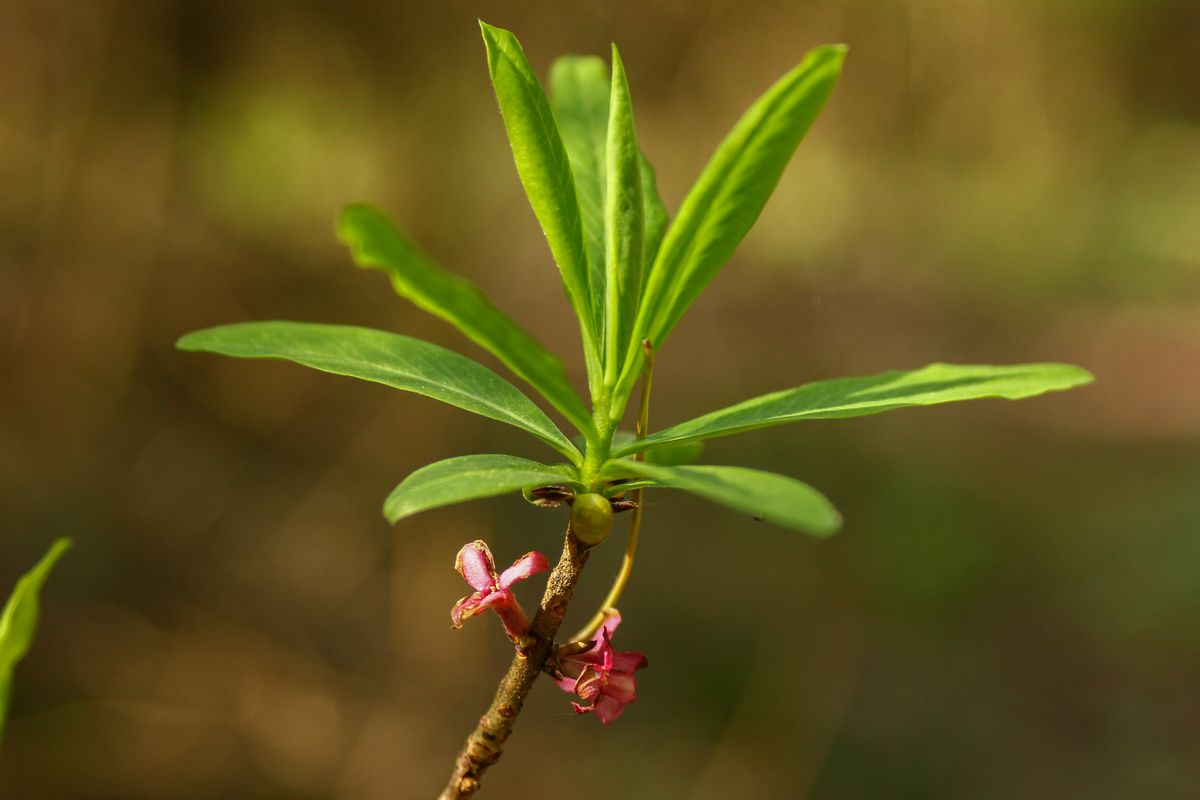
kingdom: Plantae
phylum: Tracheophyta
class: Magnoliopsida
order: Malvales
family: Thymelaeaceae
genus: Daphne
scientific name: Daphne mezereum
